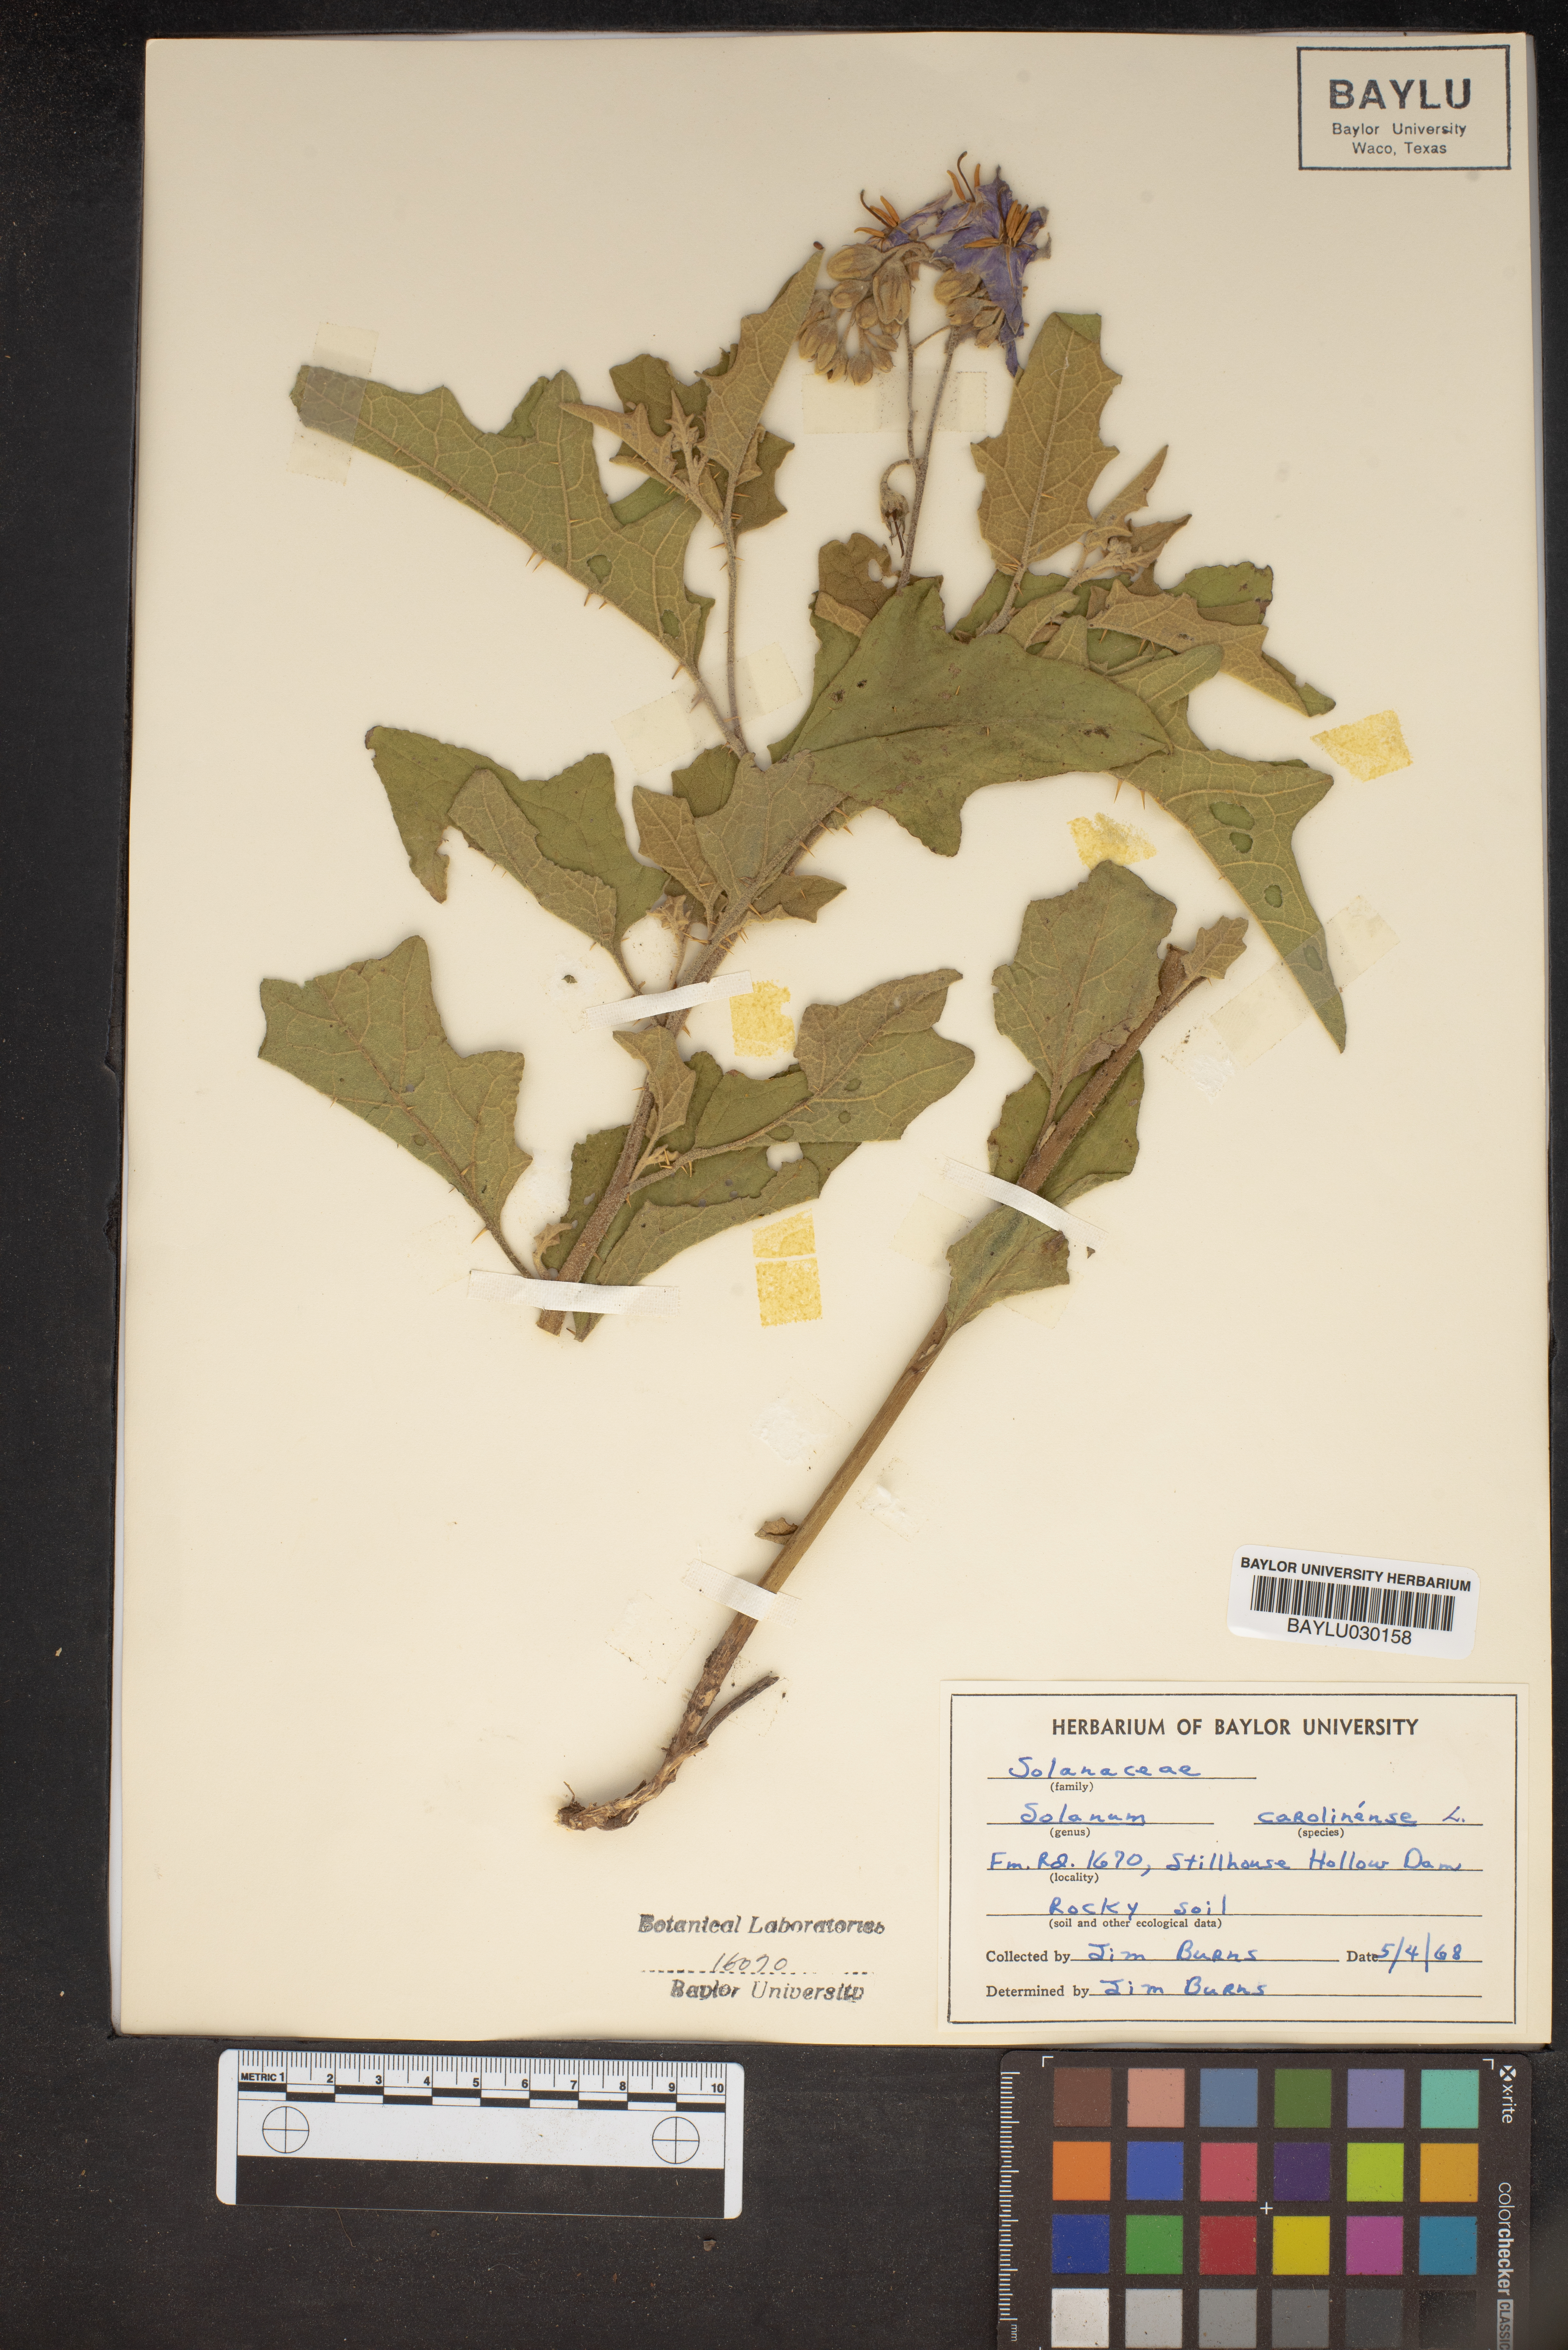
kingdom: Plantae
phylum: Tracheophyta
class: Magnoliopsida
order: Solanales
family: Solanaceae
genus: Solanum
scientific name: Solanum carolinense
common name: Horse-nettle
